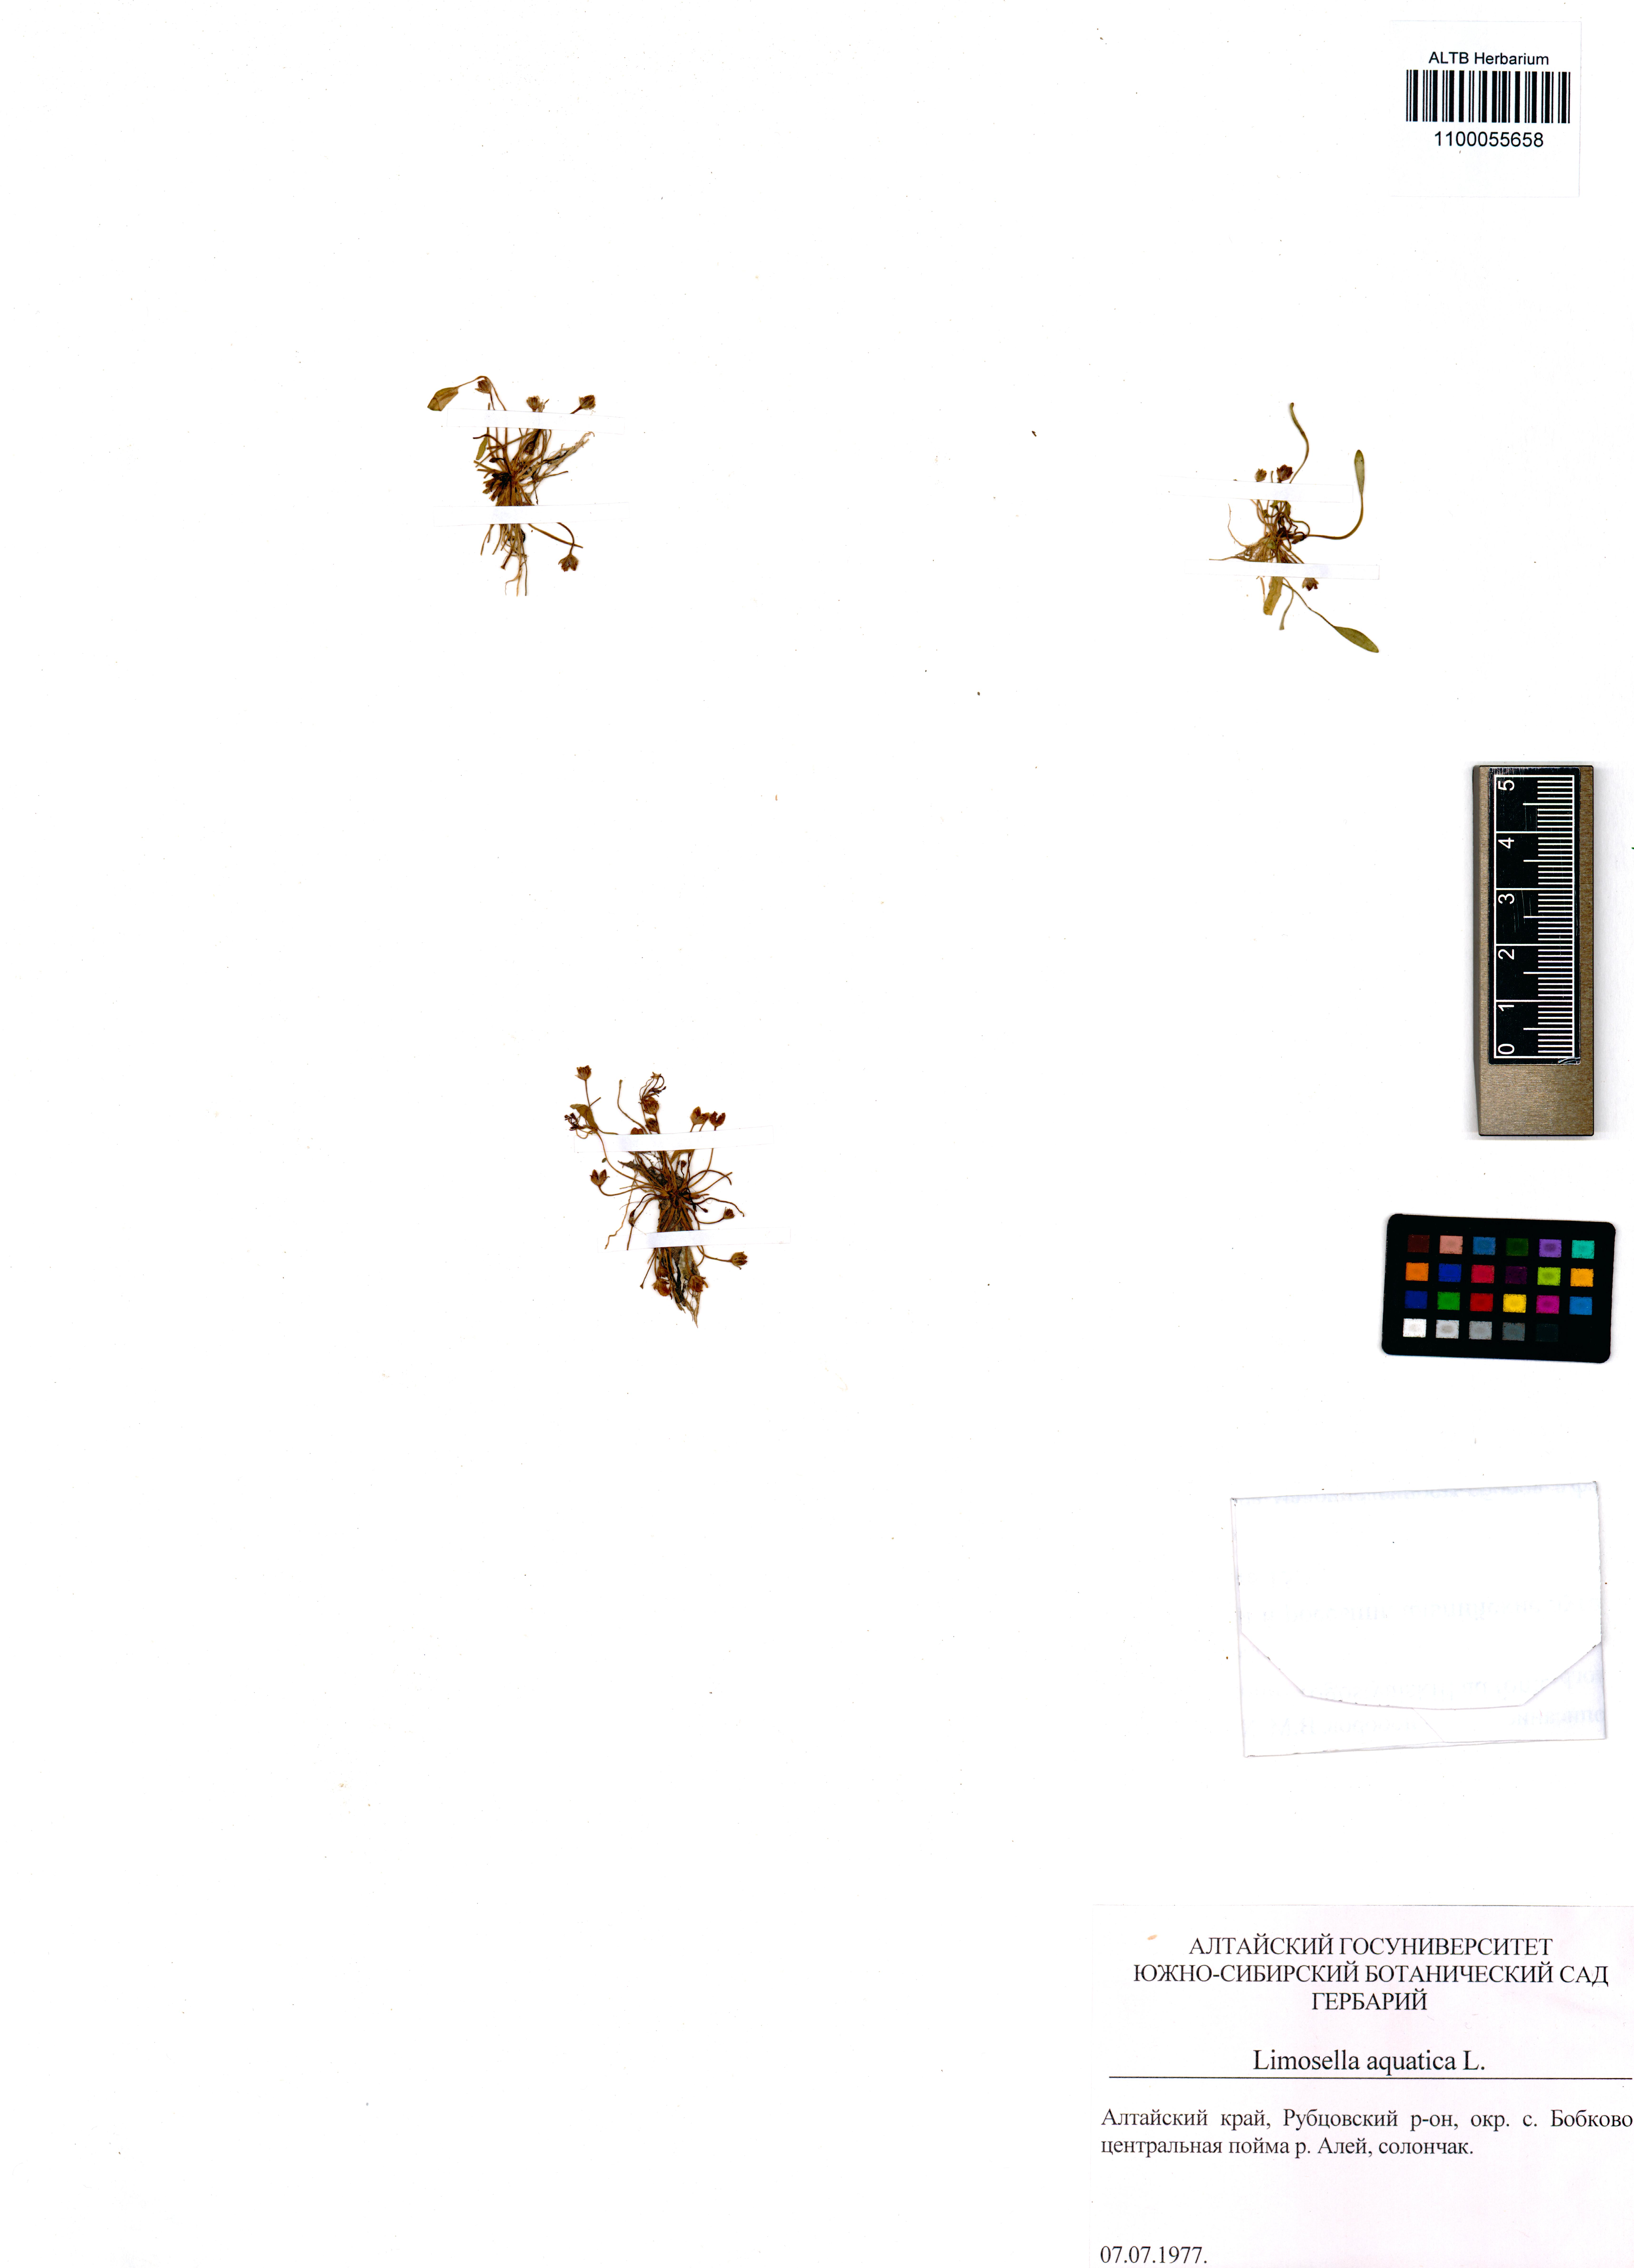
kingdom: Plantae
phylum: Tracheophyta
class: Magnoliopsida
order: Lamiales
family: Scrophulariaceae
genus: Limosella
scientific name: Limosella aquatica
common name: Mudwort
